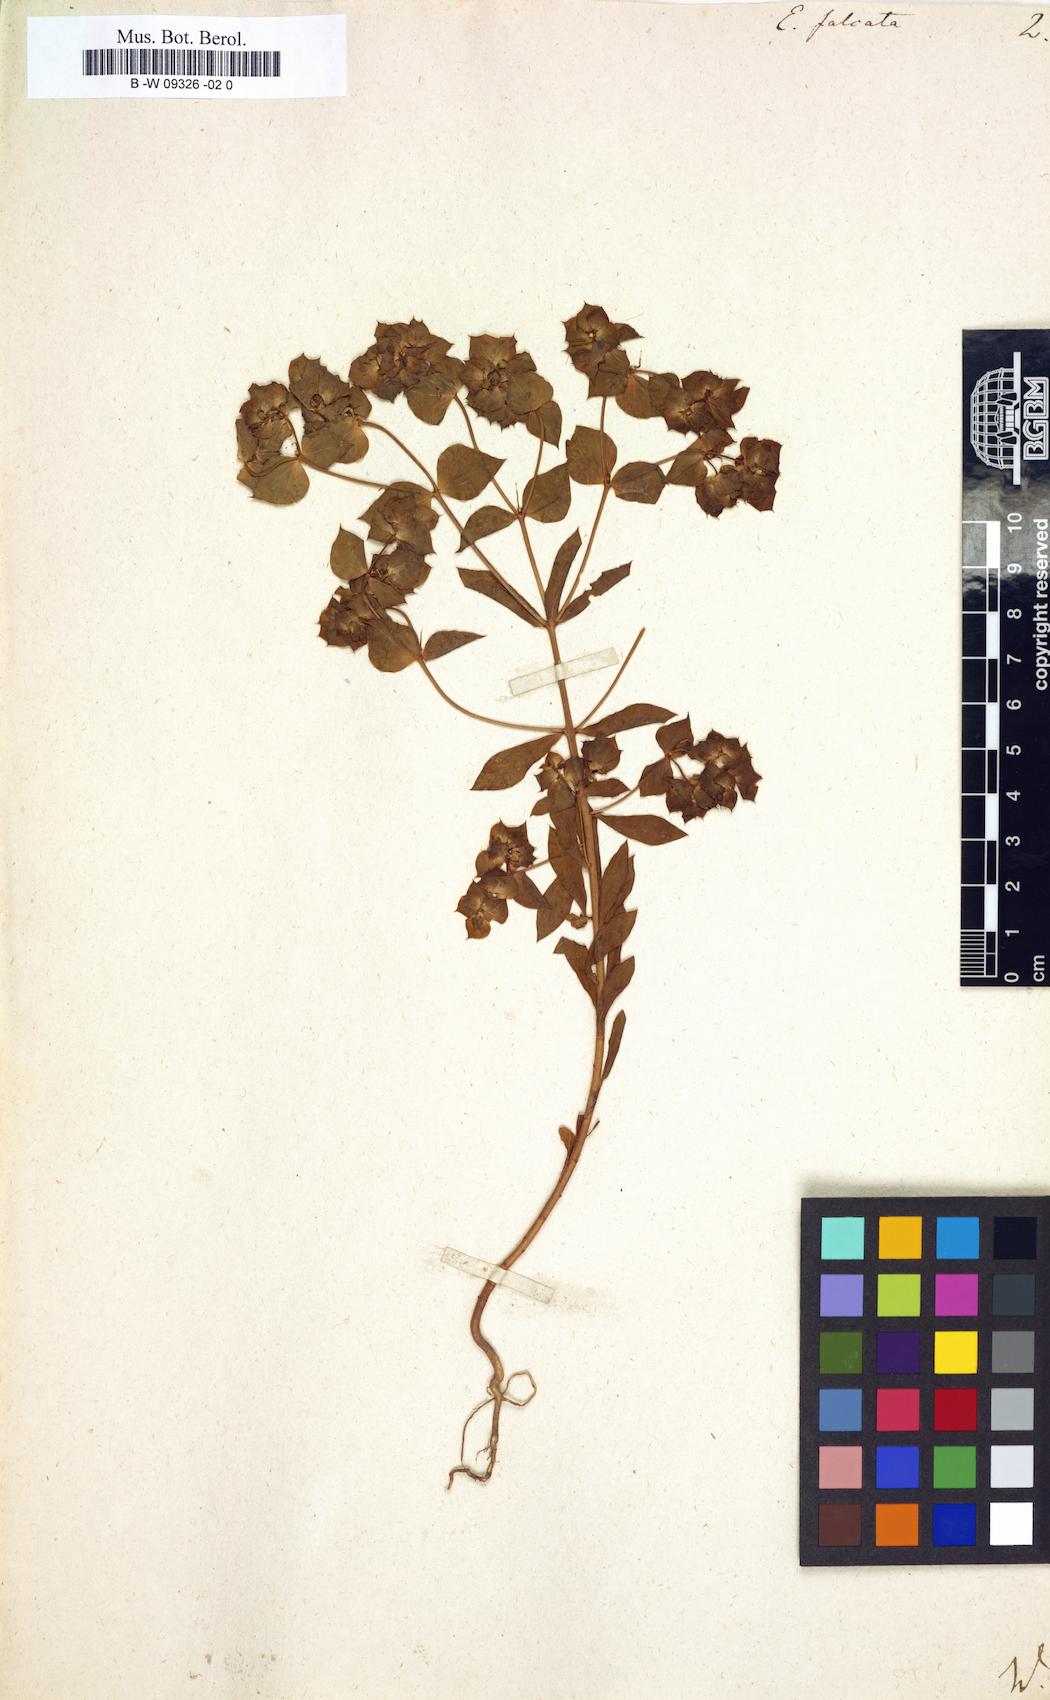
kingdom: Plantae
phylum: Tracheophyta
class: Magnoliopsida
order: Malpighiales
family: Euphorbiaceae
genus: Euphorbia
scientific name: Euphorbia falcata
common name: Sickle spurge
